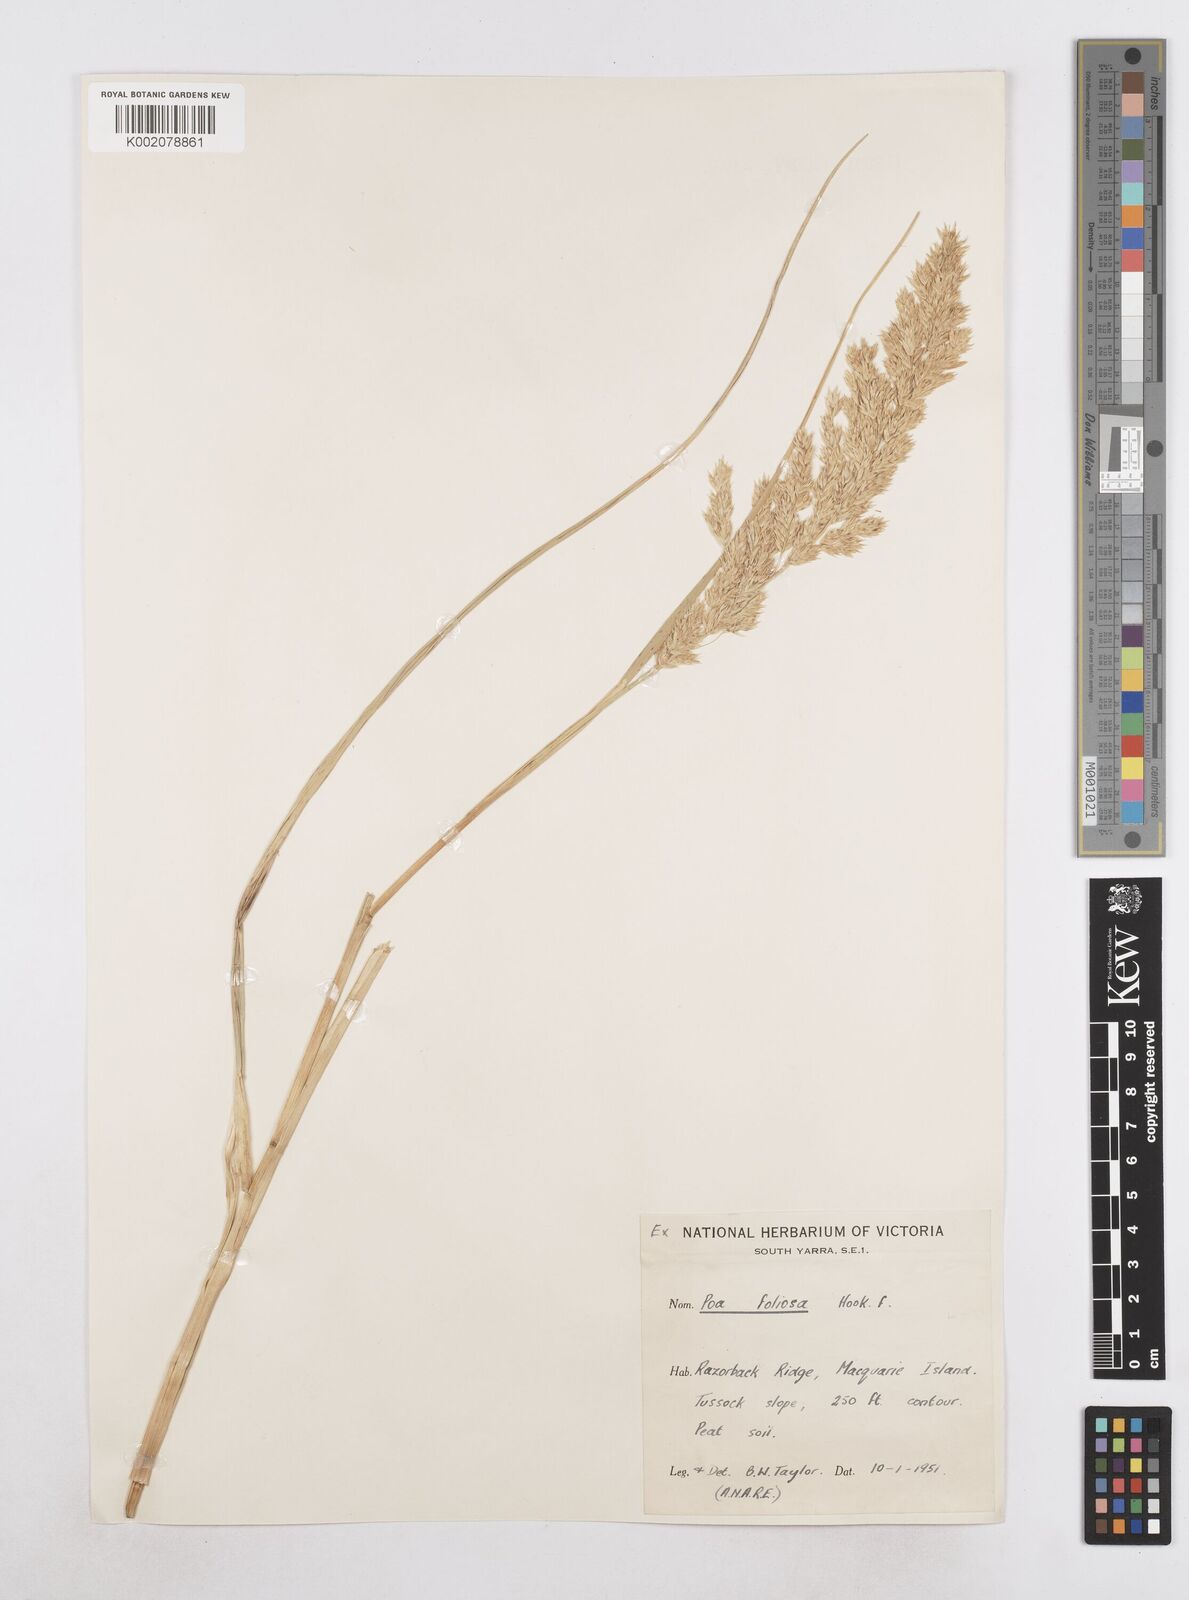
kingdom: Plantae
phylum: Tracheophyta
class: Liliopsida
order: Poales
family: Poaceae
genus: Poa
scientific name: Poa foliosa
